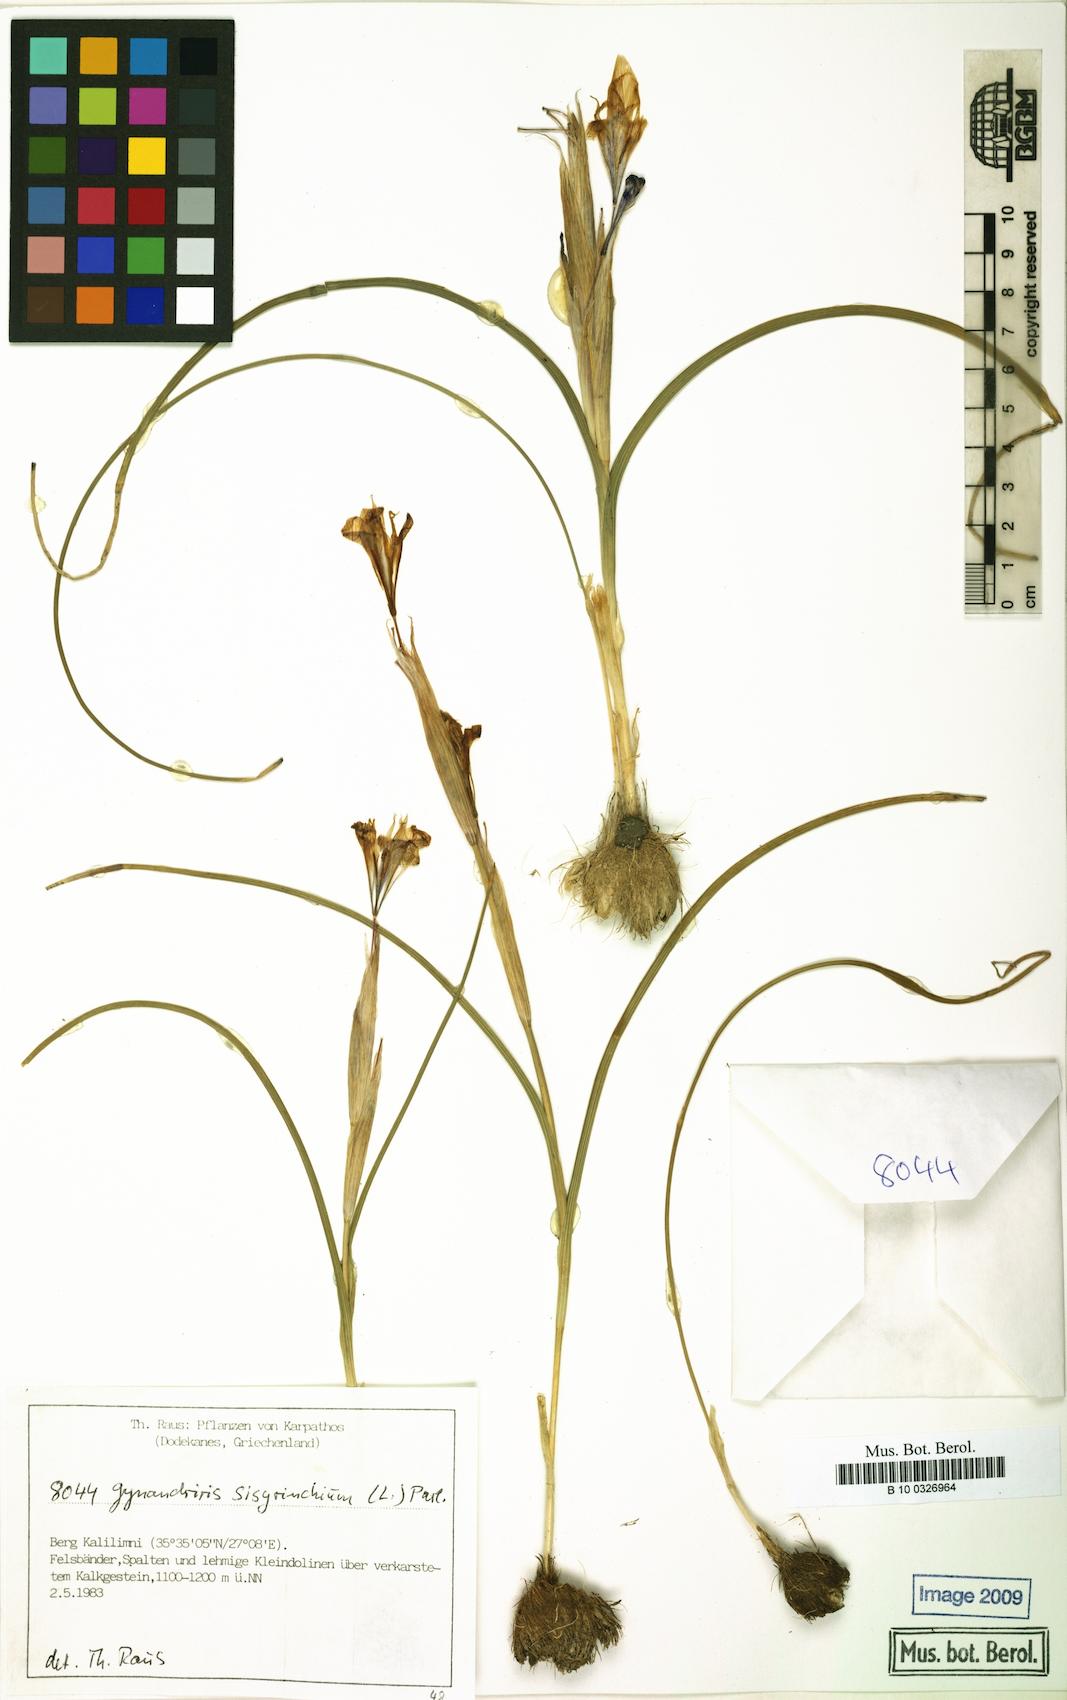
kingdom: Plantae
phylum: Tracheophyta
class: Liliopsida
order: Asparagales
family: Iridaceae
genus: Moraea
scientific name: Moraea sisyrinchium
